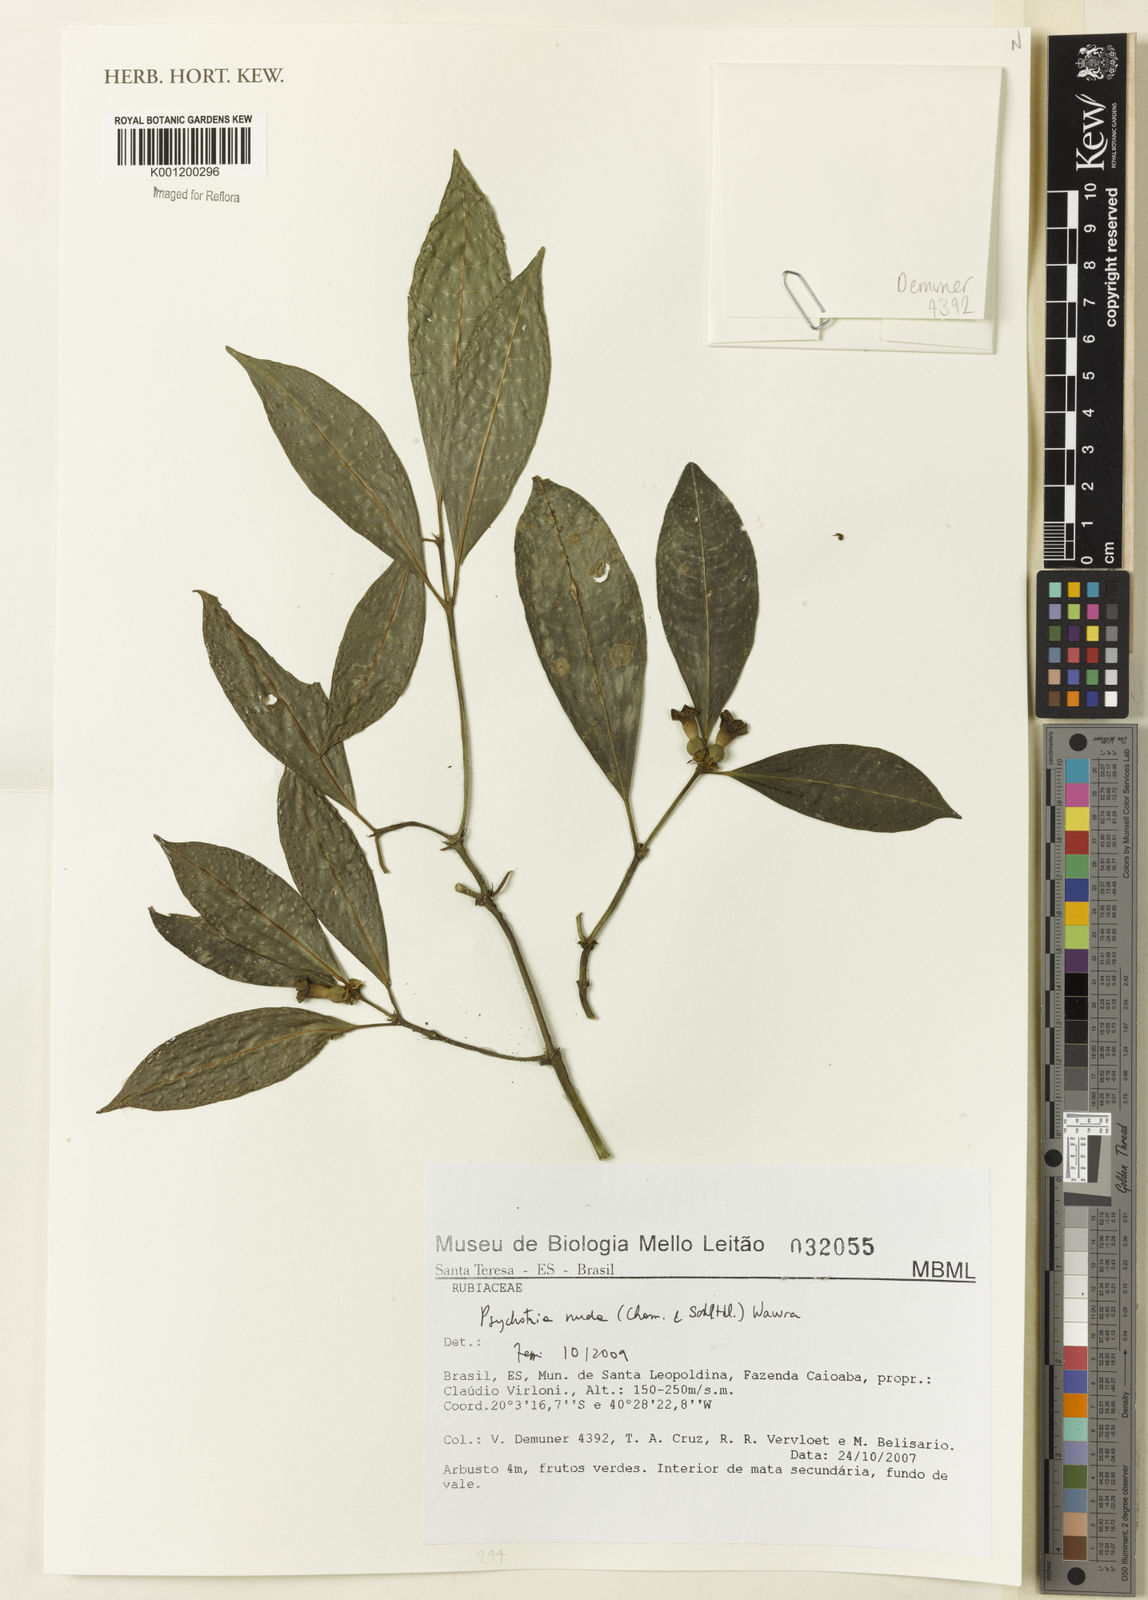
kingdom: Plantae
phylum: Tracheophyta
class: Magnoliopsida
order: Gentianales
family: Rubiaceae
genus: Psychotria
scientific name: Psychotria nuda
